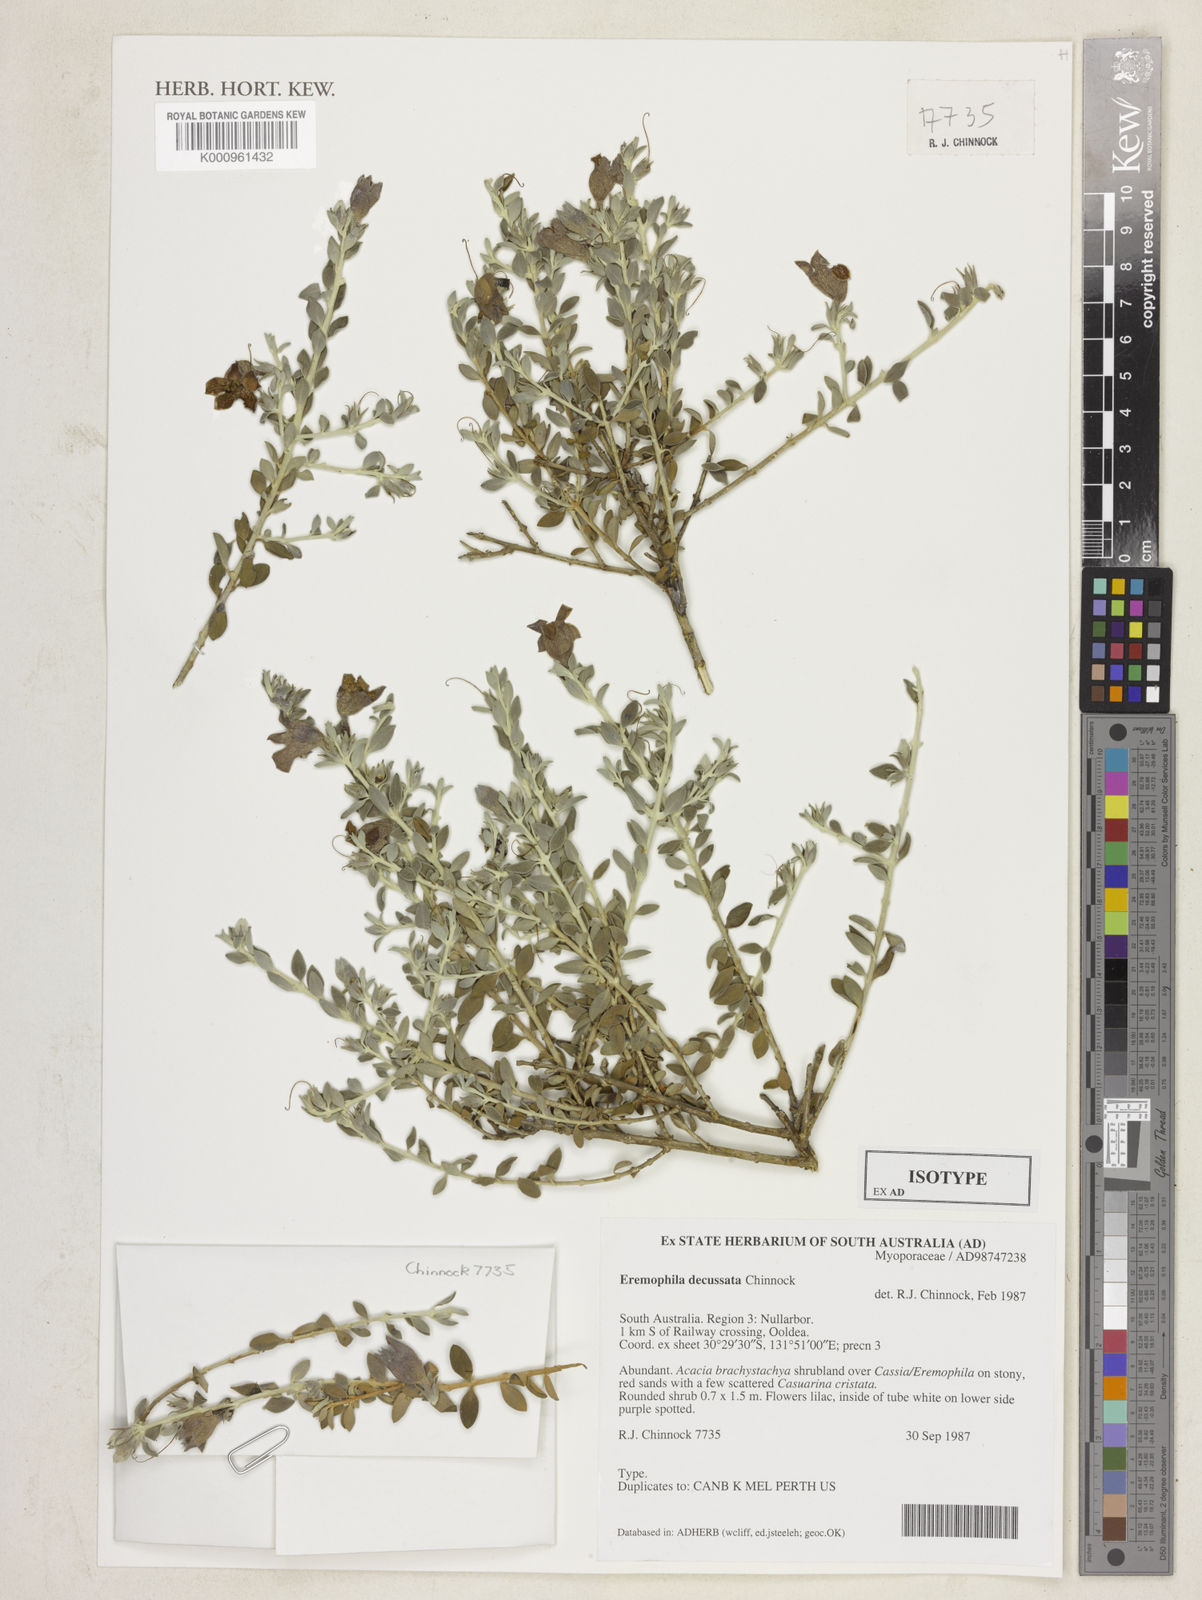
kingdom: Plantae
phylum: Tracheophyta
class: Magnoliopsida
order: Lamiales
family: Scrophulariaceae
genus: Eremophila
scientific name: Eremophila decussata
